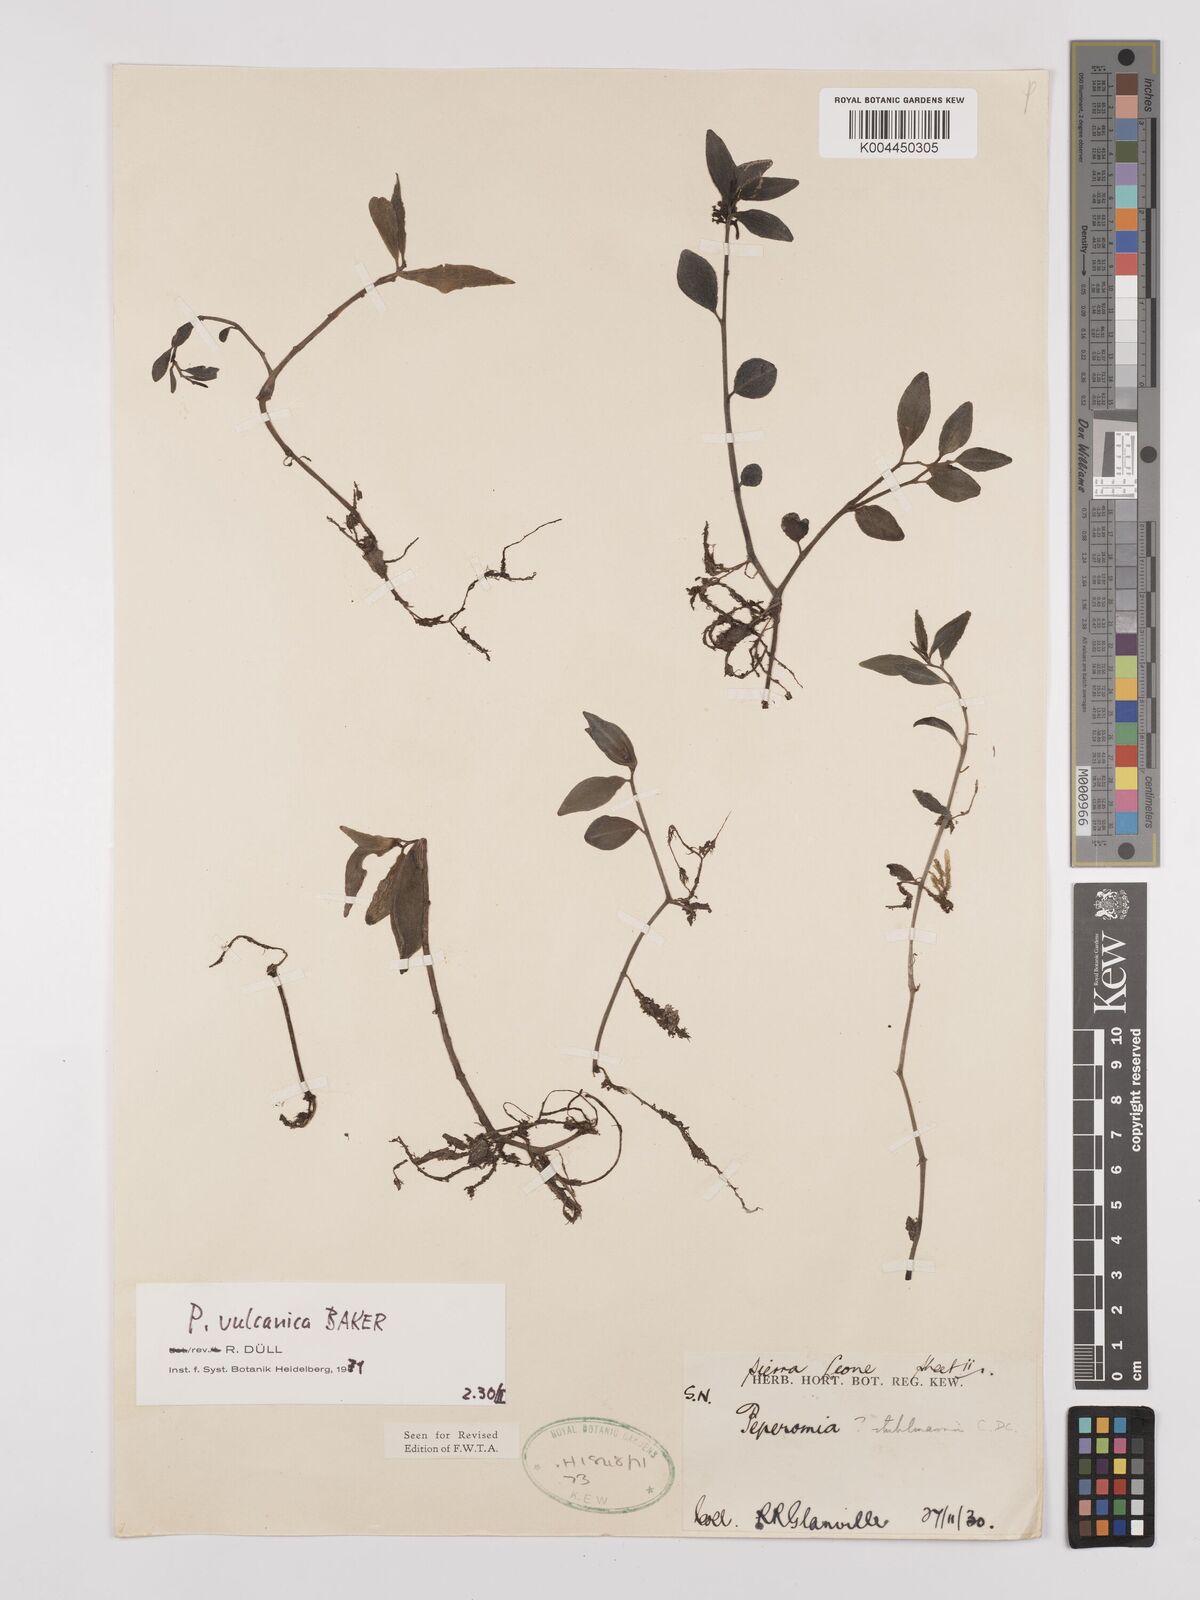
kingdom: Plantae
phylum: Tracheophyta
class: Magnoliopsida
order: Piperales
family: Piperaceae
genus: Peperomia
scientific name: Peperomia vulcanica
